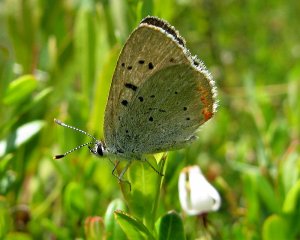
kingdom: Animalia
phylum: Arthropoda
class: Insecta
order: Lepidoptera
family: Sesiidae
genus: Sesia
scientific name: Sesia Lycaena epixanthe
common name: Bog Copper
